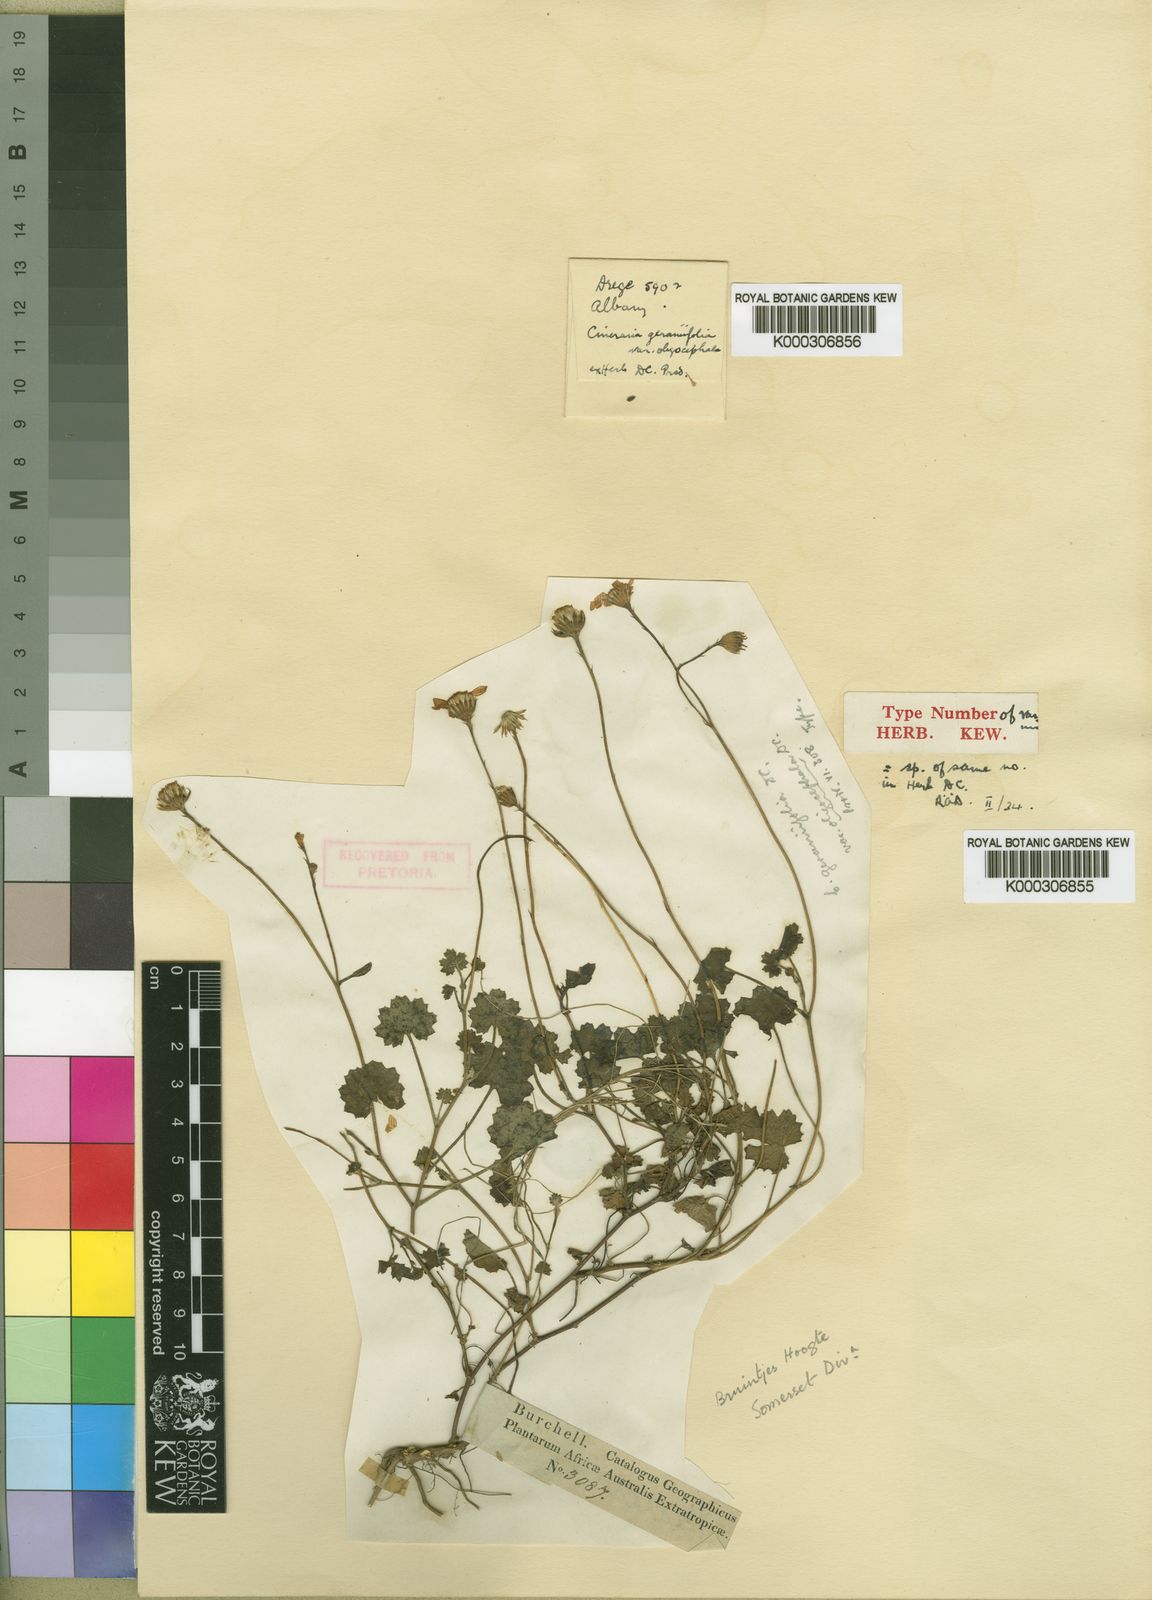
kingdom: Plantae
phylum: Tracheophyta
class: Magnoliopsida
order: Asterales
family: Asteraceae
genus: Cineraria
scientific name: Cineraria geraniifolia
